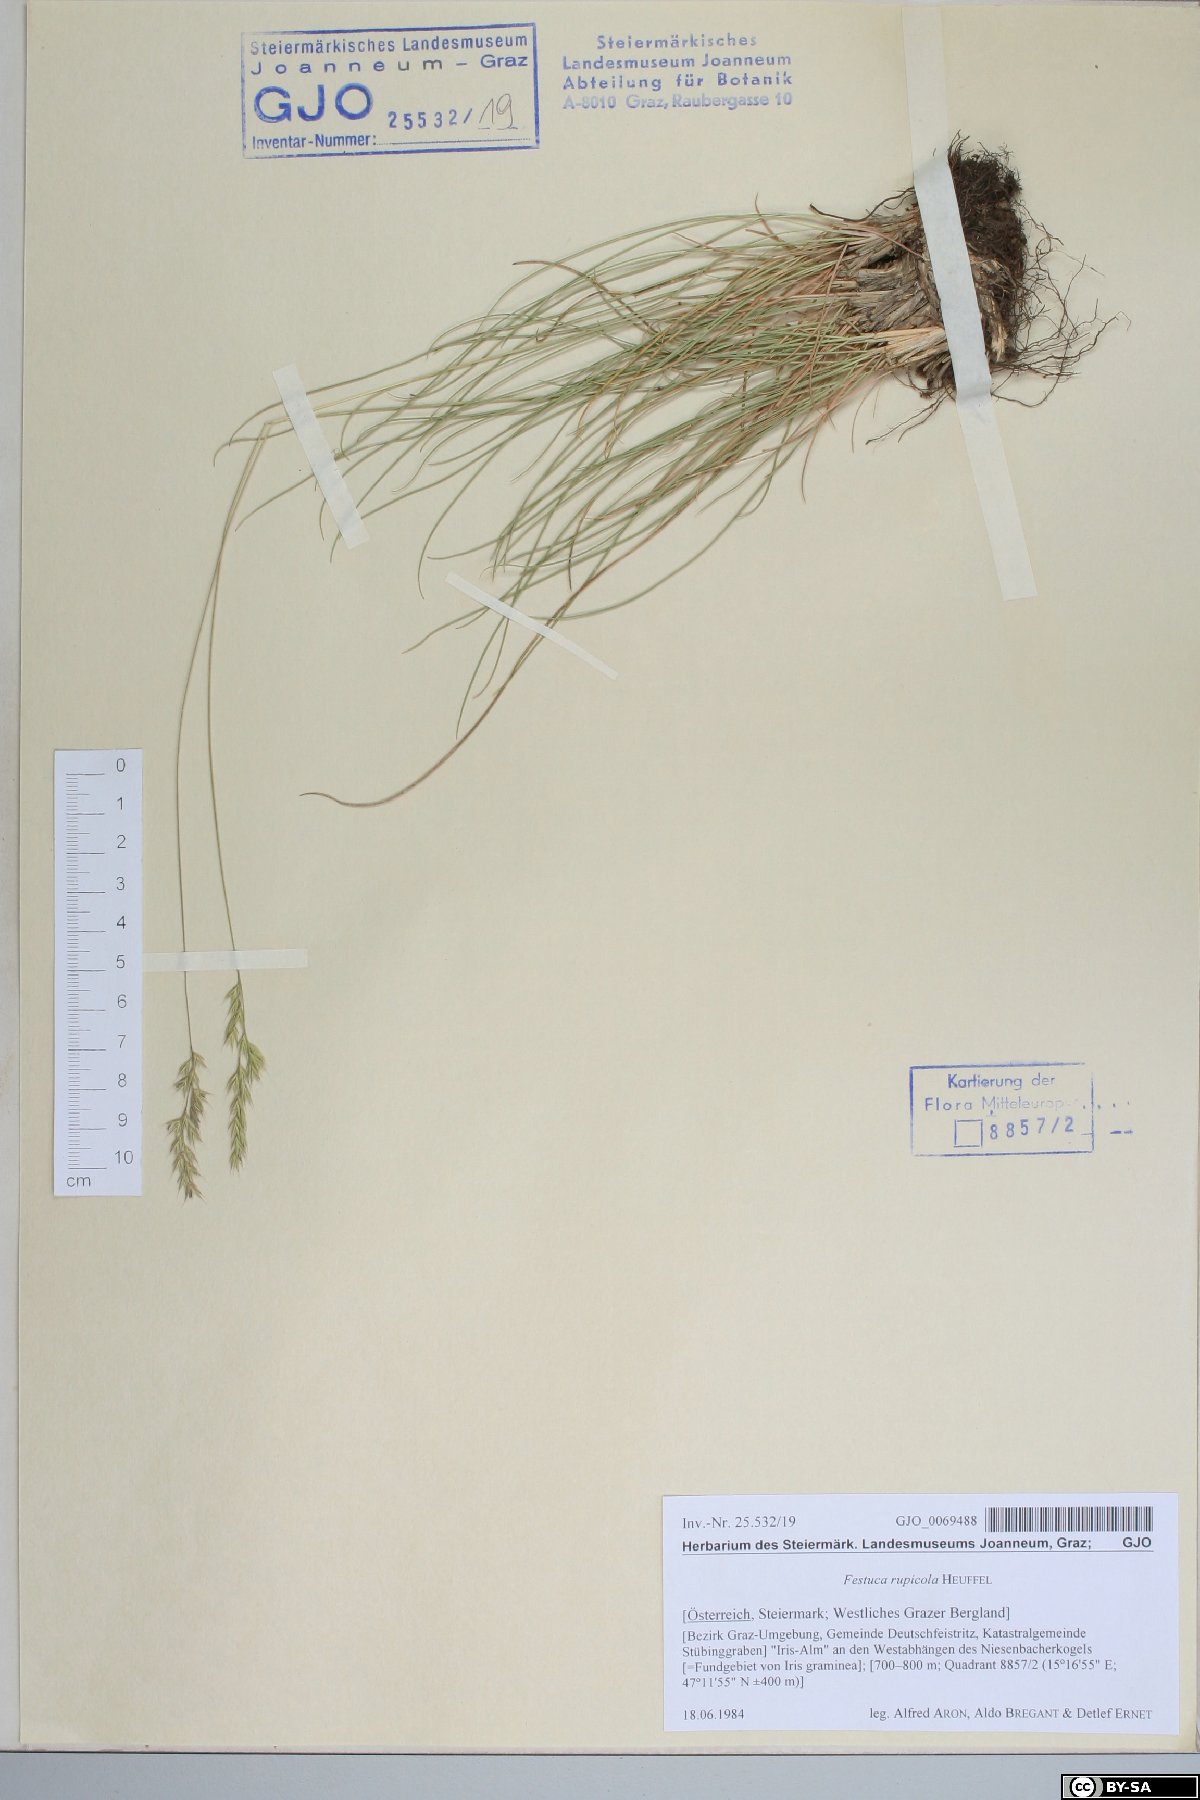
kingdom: Plantae
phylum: Tracheophyta
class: Liliopsida
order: Poales
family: Poaceae
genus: Festuca
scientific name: Festuca rupicola
